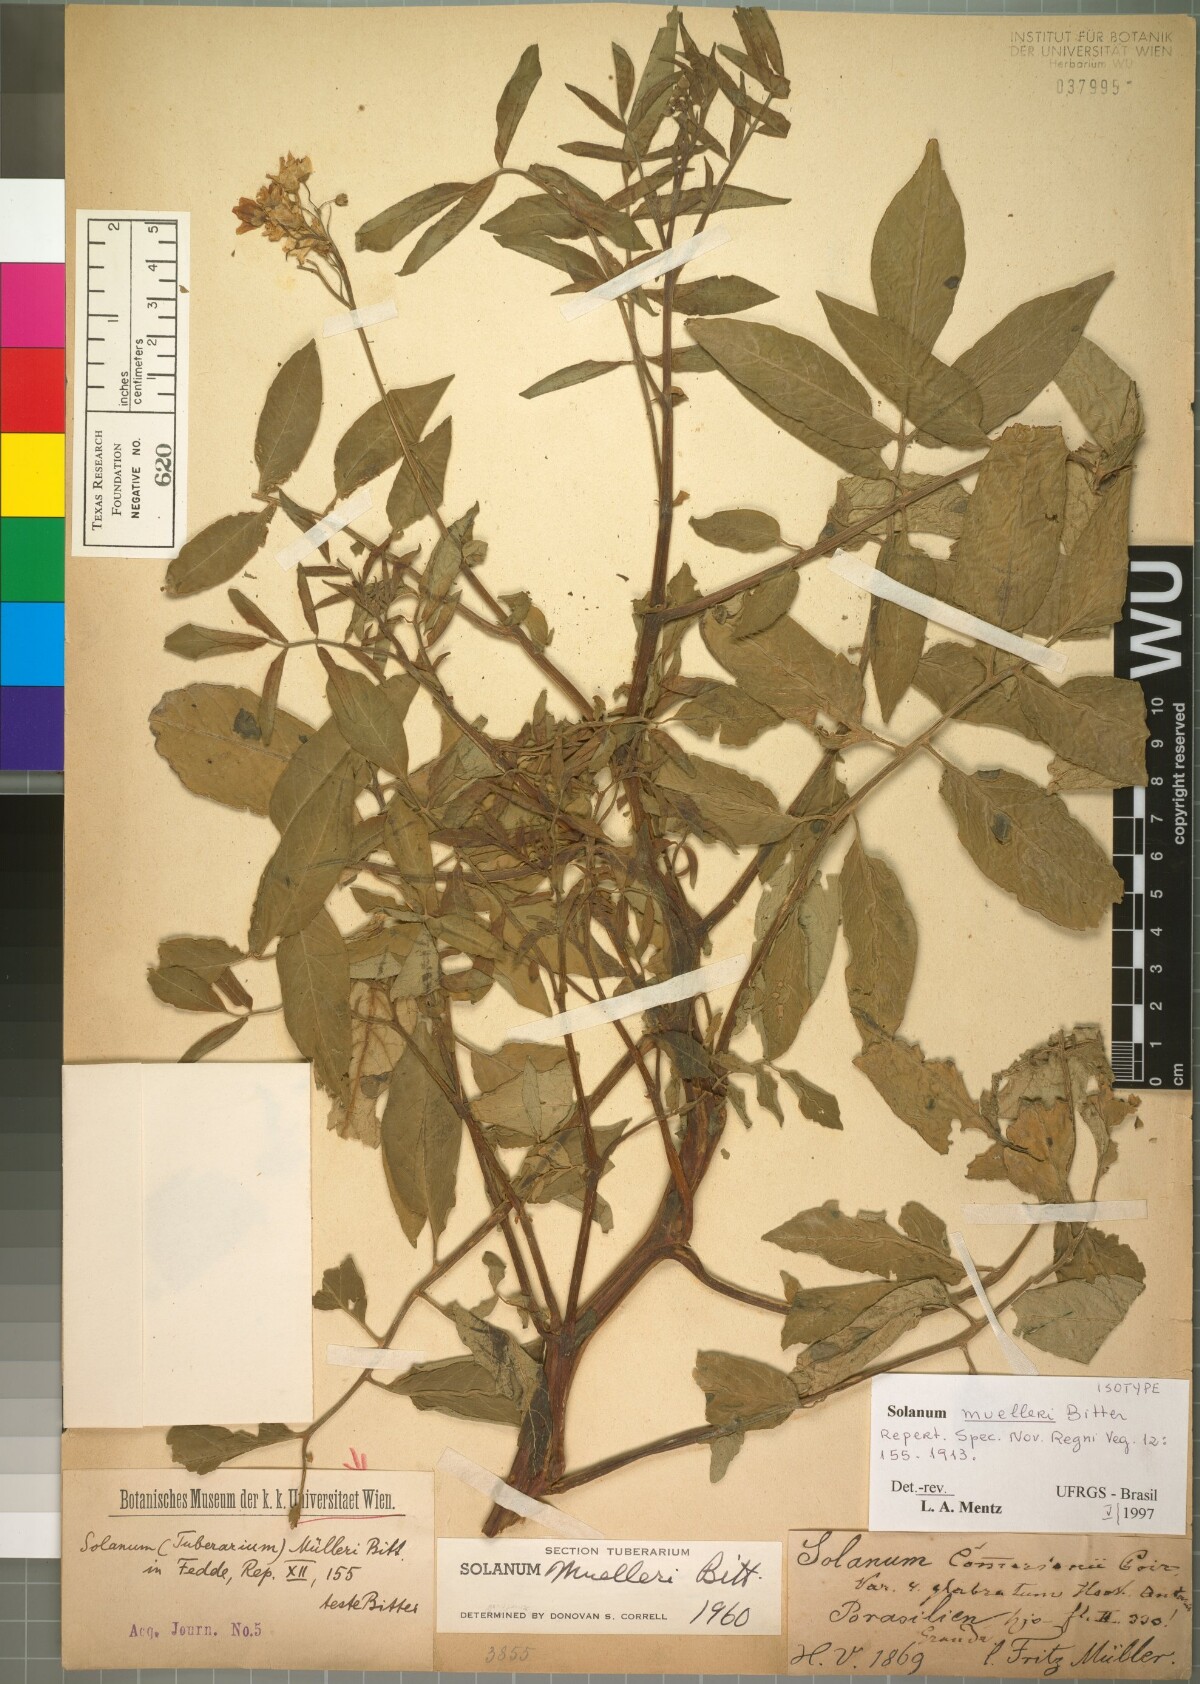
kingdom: Plantae
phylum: Tracheophyta
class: Magnoliopsida
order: Solanales
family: Solanaceae
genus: Solanum
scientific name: Solanum chacoense
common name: Chaco potato
